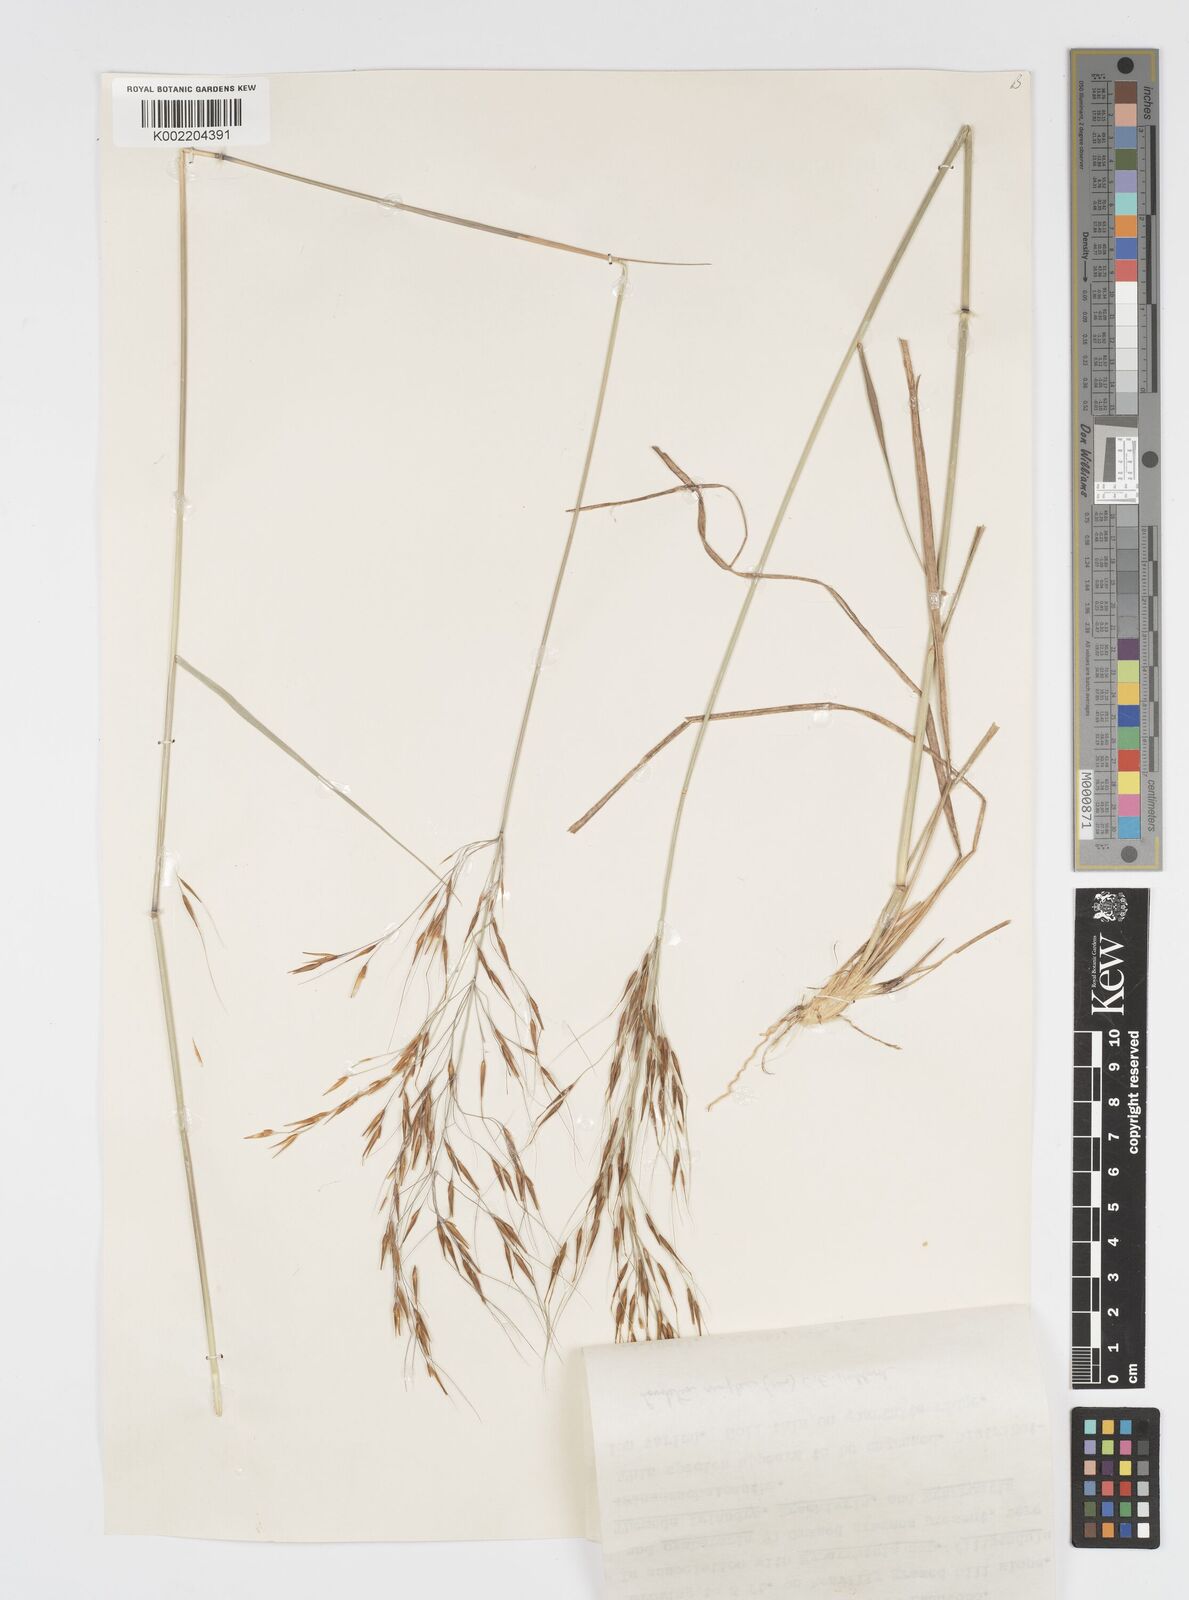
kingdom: Plantae
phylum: Tracheophyta
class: Liliopsida
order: Poales
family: Poaceae
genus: Loudetia
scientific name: Loudetia simplex
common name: Common russet grass
